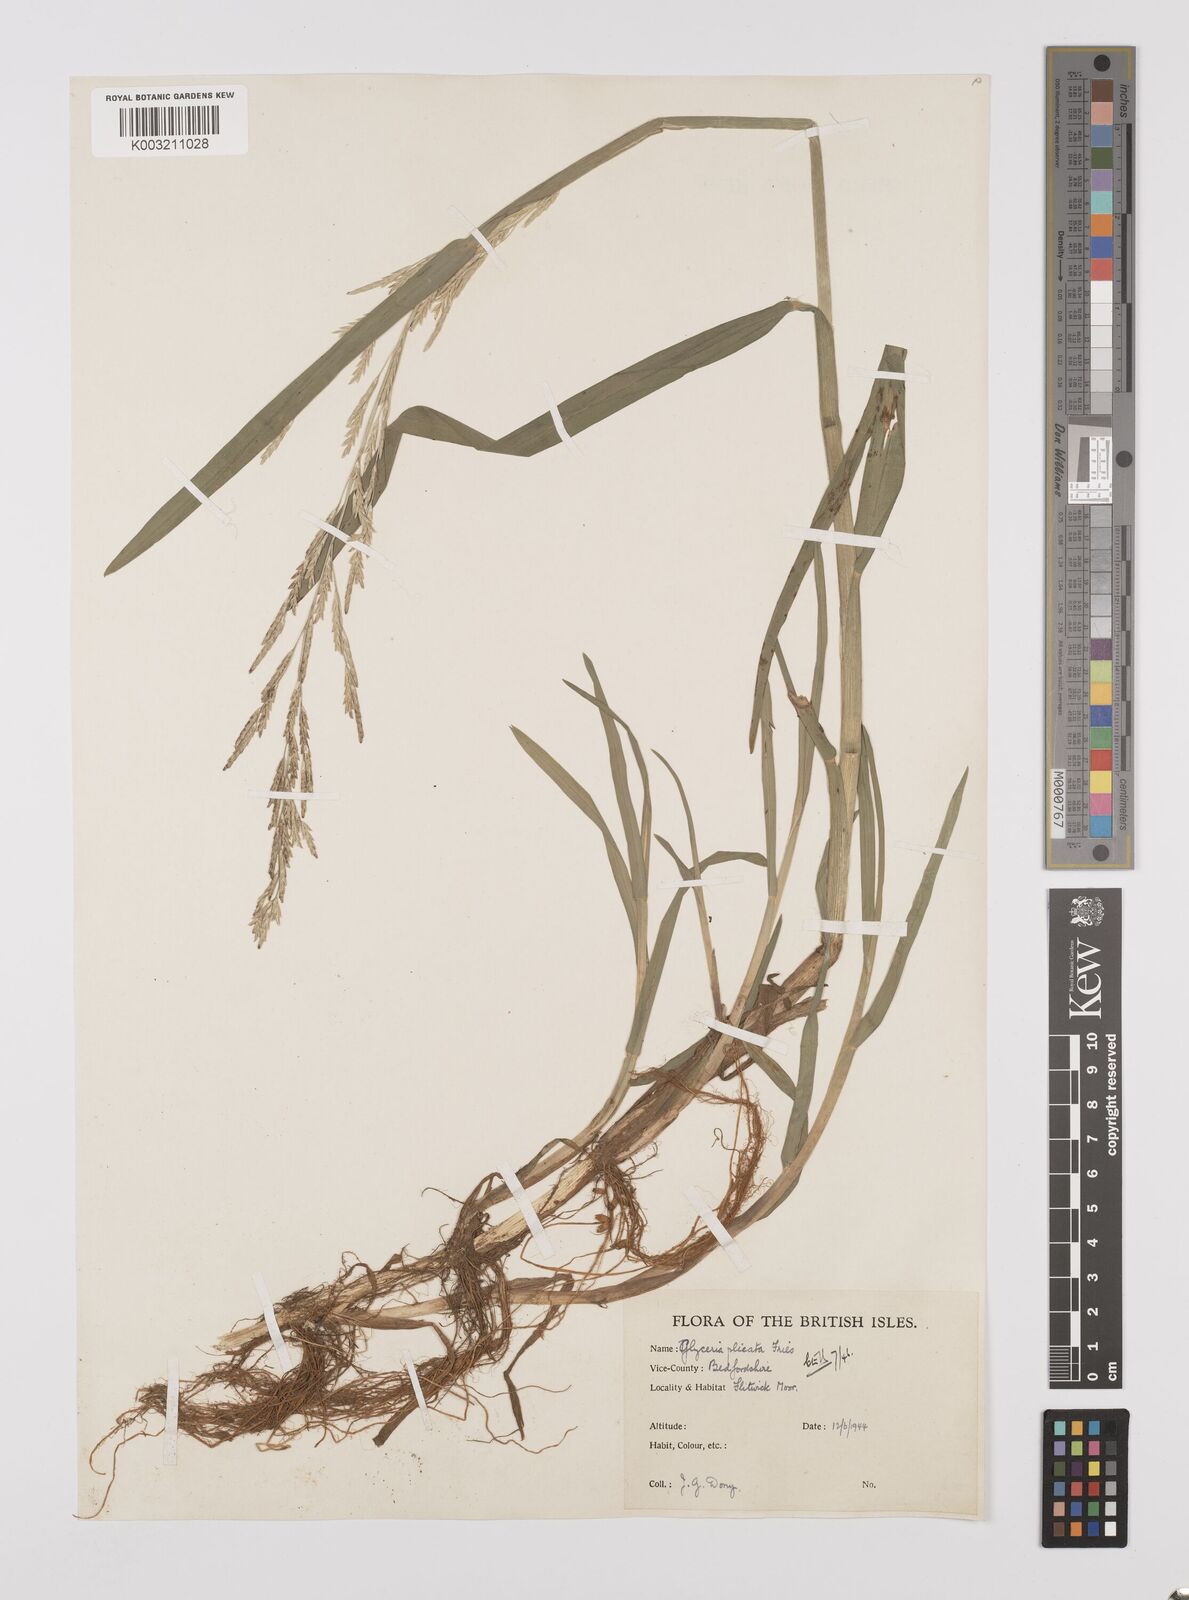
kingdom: Plantae
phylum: Tracheophyta
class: Liliopsida
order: Poales
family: Poaceae
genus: Glyceria
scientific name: Glyceria notata
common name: Plicate sweet-grass
